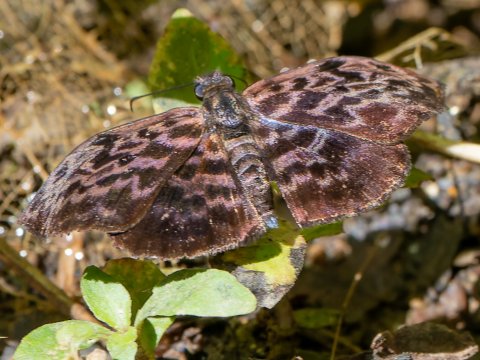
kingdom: Animalia
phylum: Arthropoda
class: Insecta
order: Lepidoptera
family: Hesperiidae
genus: Cycloglypha
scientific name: Cycloglypha thrasibulus
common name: Widespread Bent-Skipper
